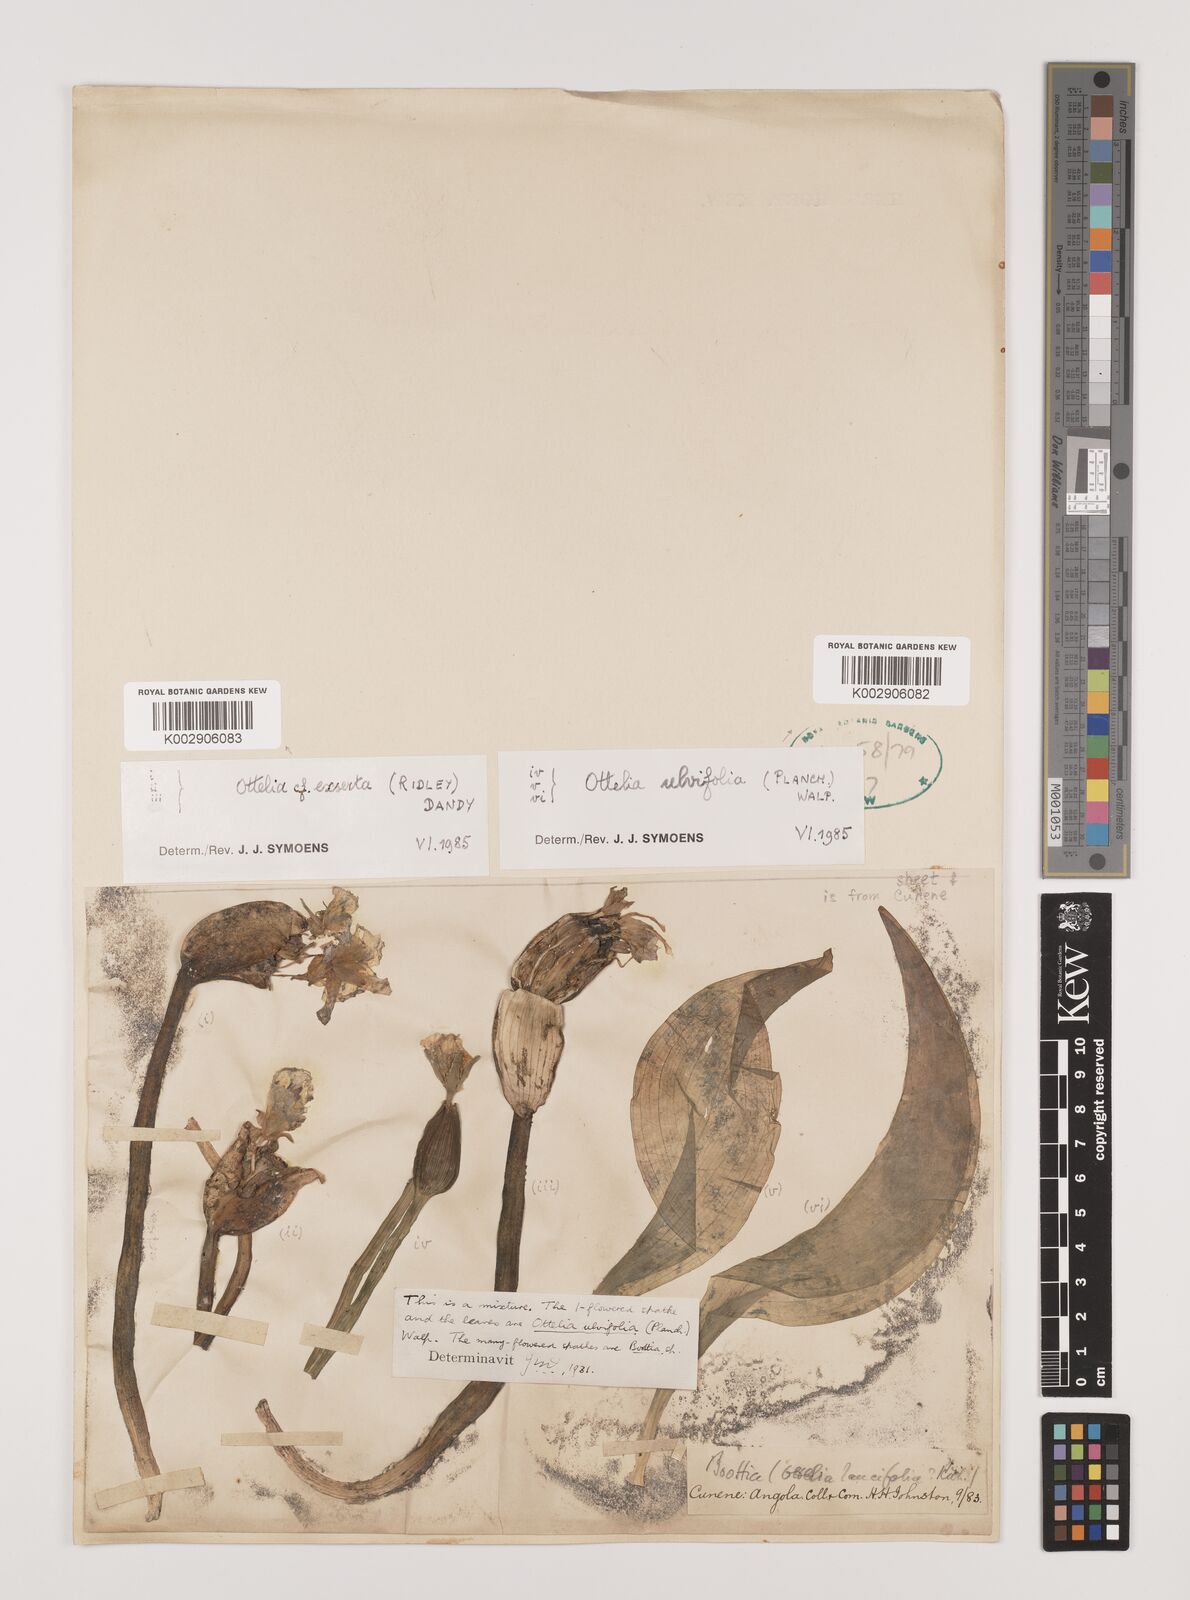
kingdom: Plantae
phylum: Tracheophyta
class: Liliopsida
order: Alismatales
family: Hydrocharitaceae
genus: Ottelia
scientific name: Ottelia ulvifolia
